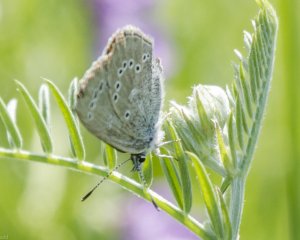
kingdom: Animalia
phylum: Arthropoda
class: Insecta
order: Lepidoptera
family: Lycaenidae
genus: Glaucopsyche
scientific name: Glaucopsyche lygdamus
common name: Silvery Blue
